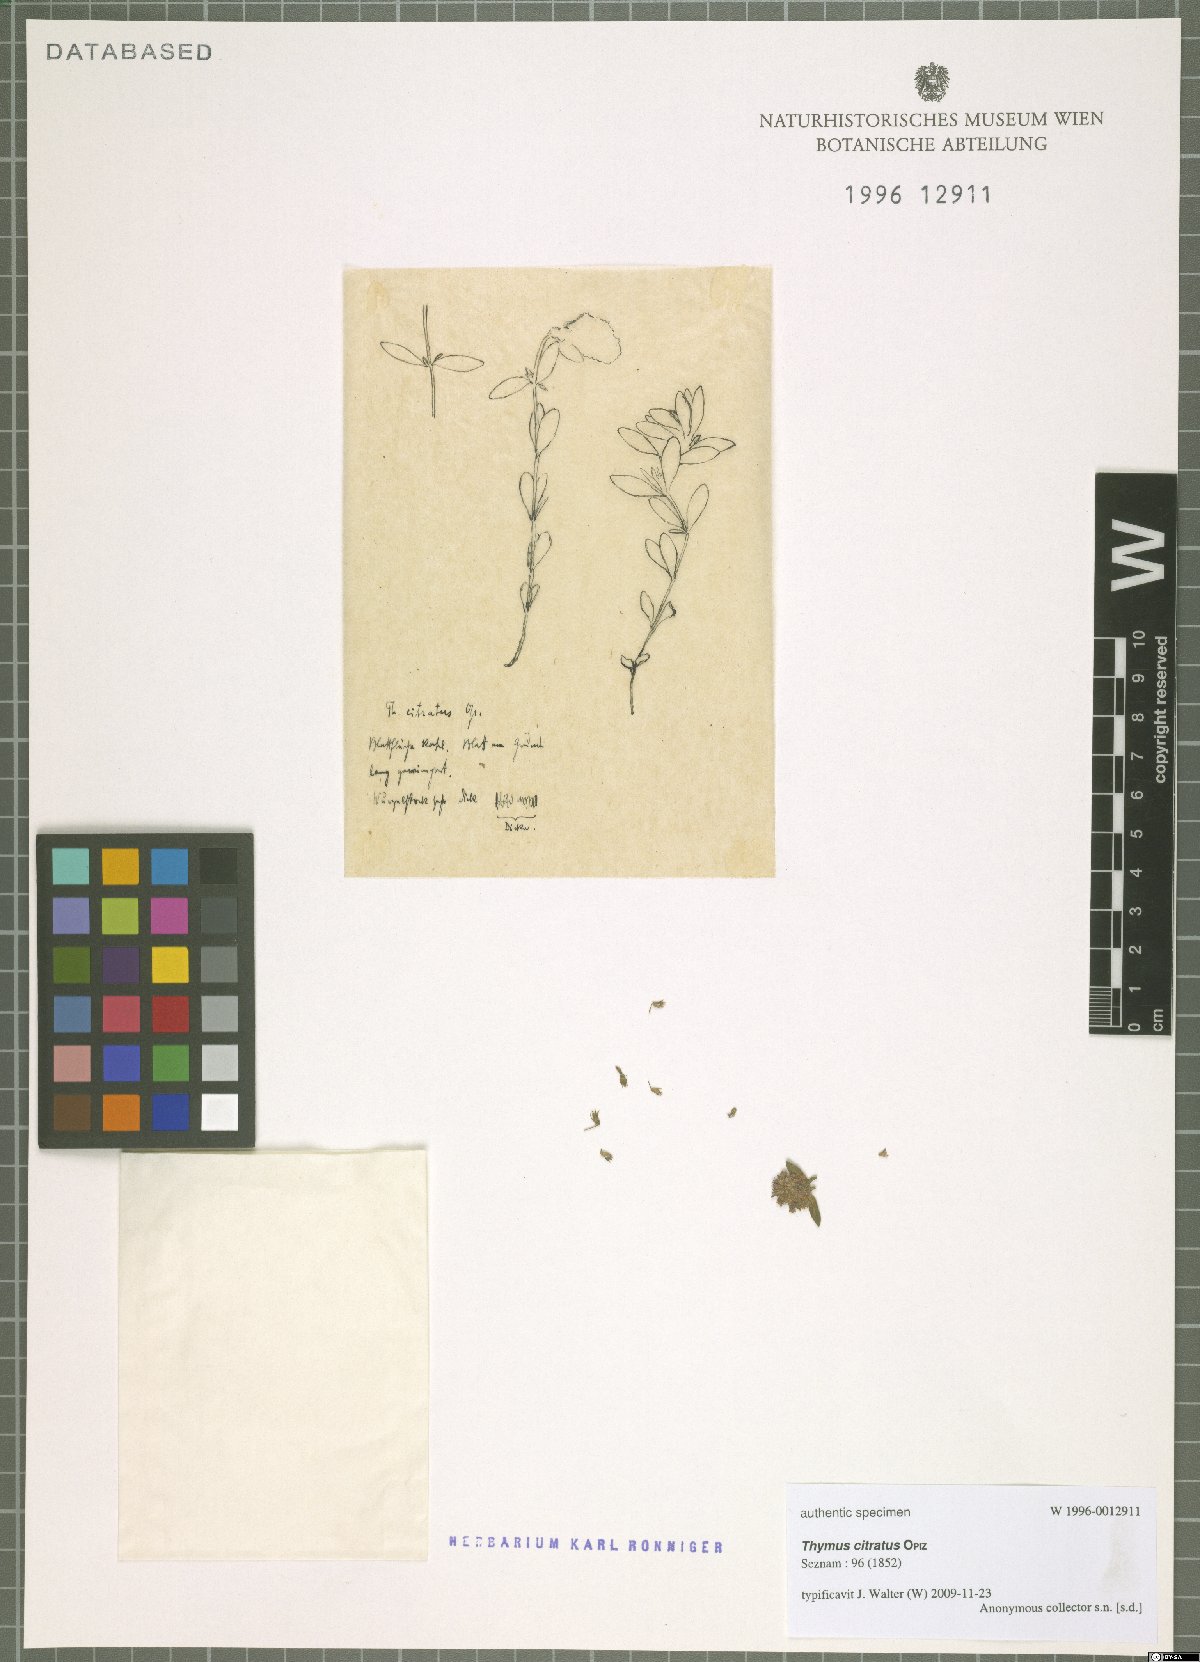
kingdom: Plantae
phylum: Tracheophyta
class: Magnoliopsida
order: Lamiales
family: Lamiaceae
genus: Thymus
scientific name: Thymus citriodorus
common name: Lemon thyme
